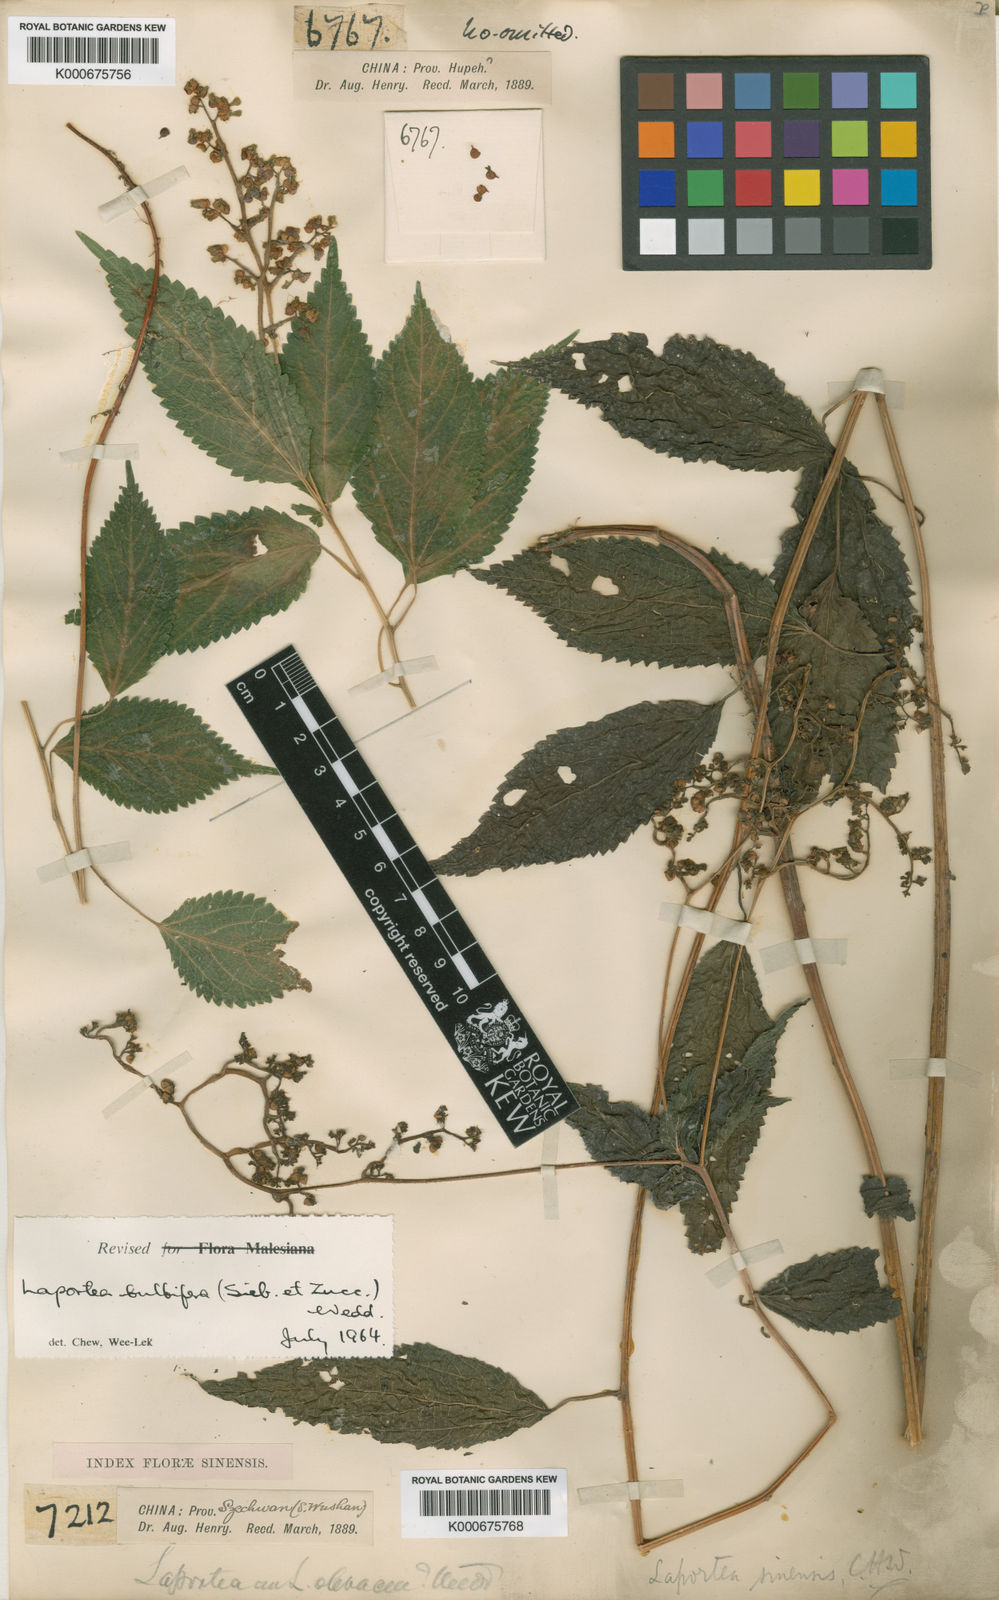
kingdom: Plantae
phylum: Tracheophyta
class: Magnoliopsida
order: Rosales
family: Urticaceae
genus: Laportea
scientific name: Laportea bulbifera
